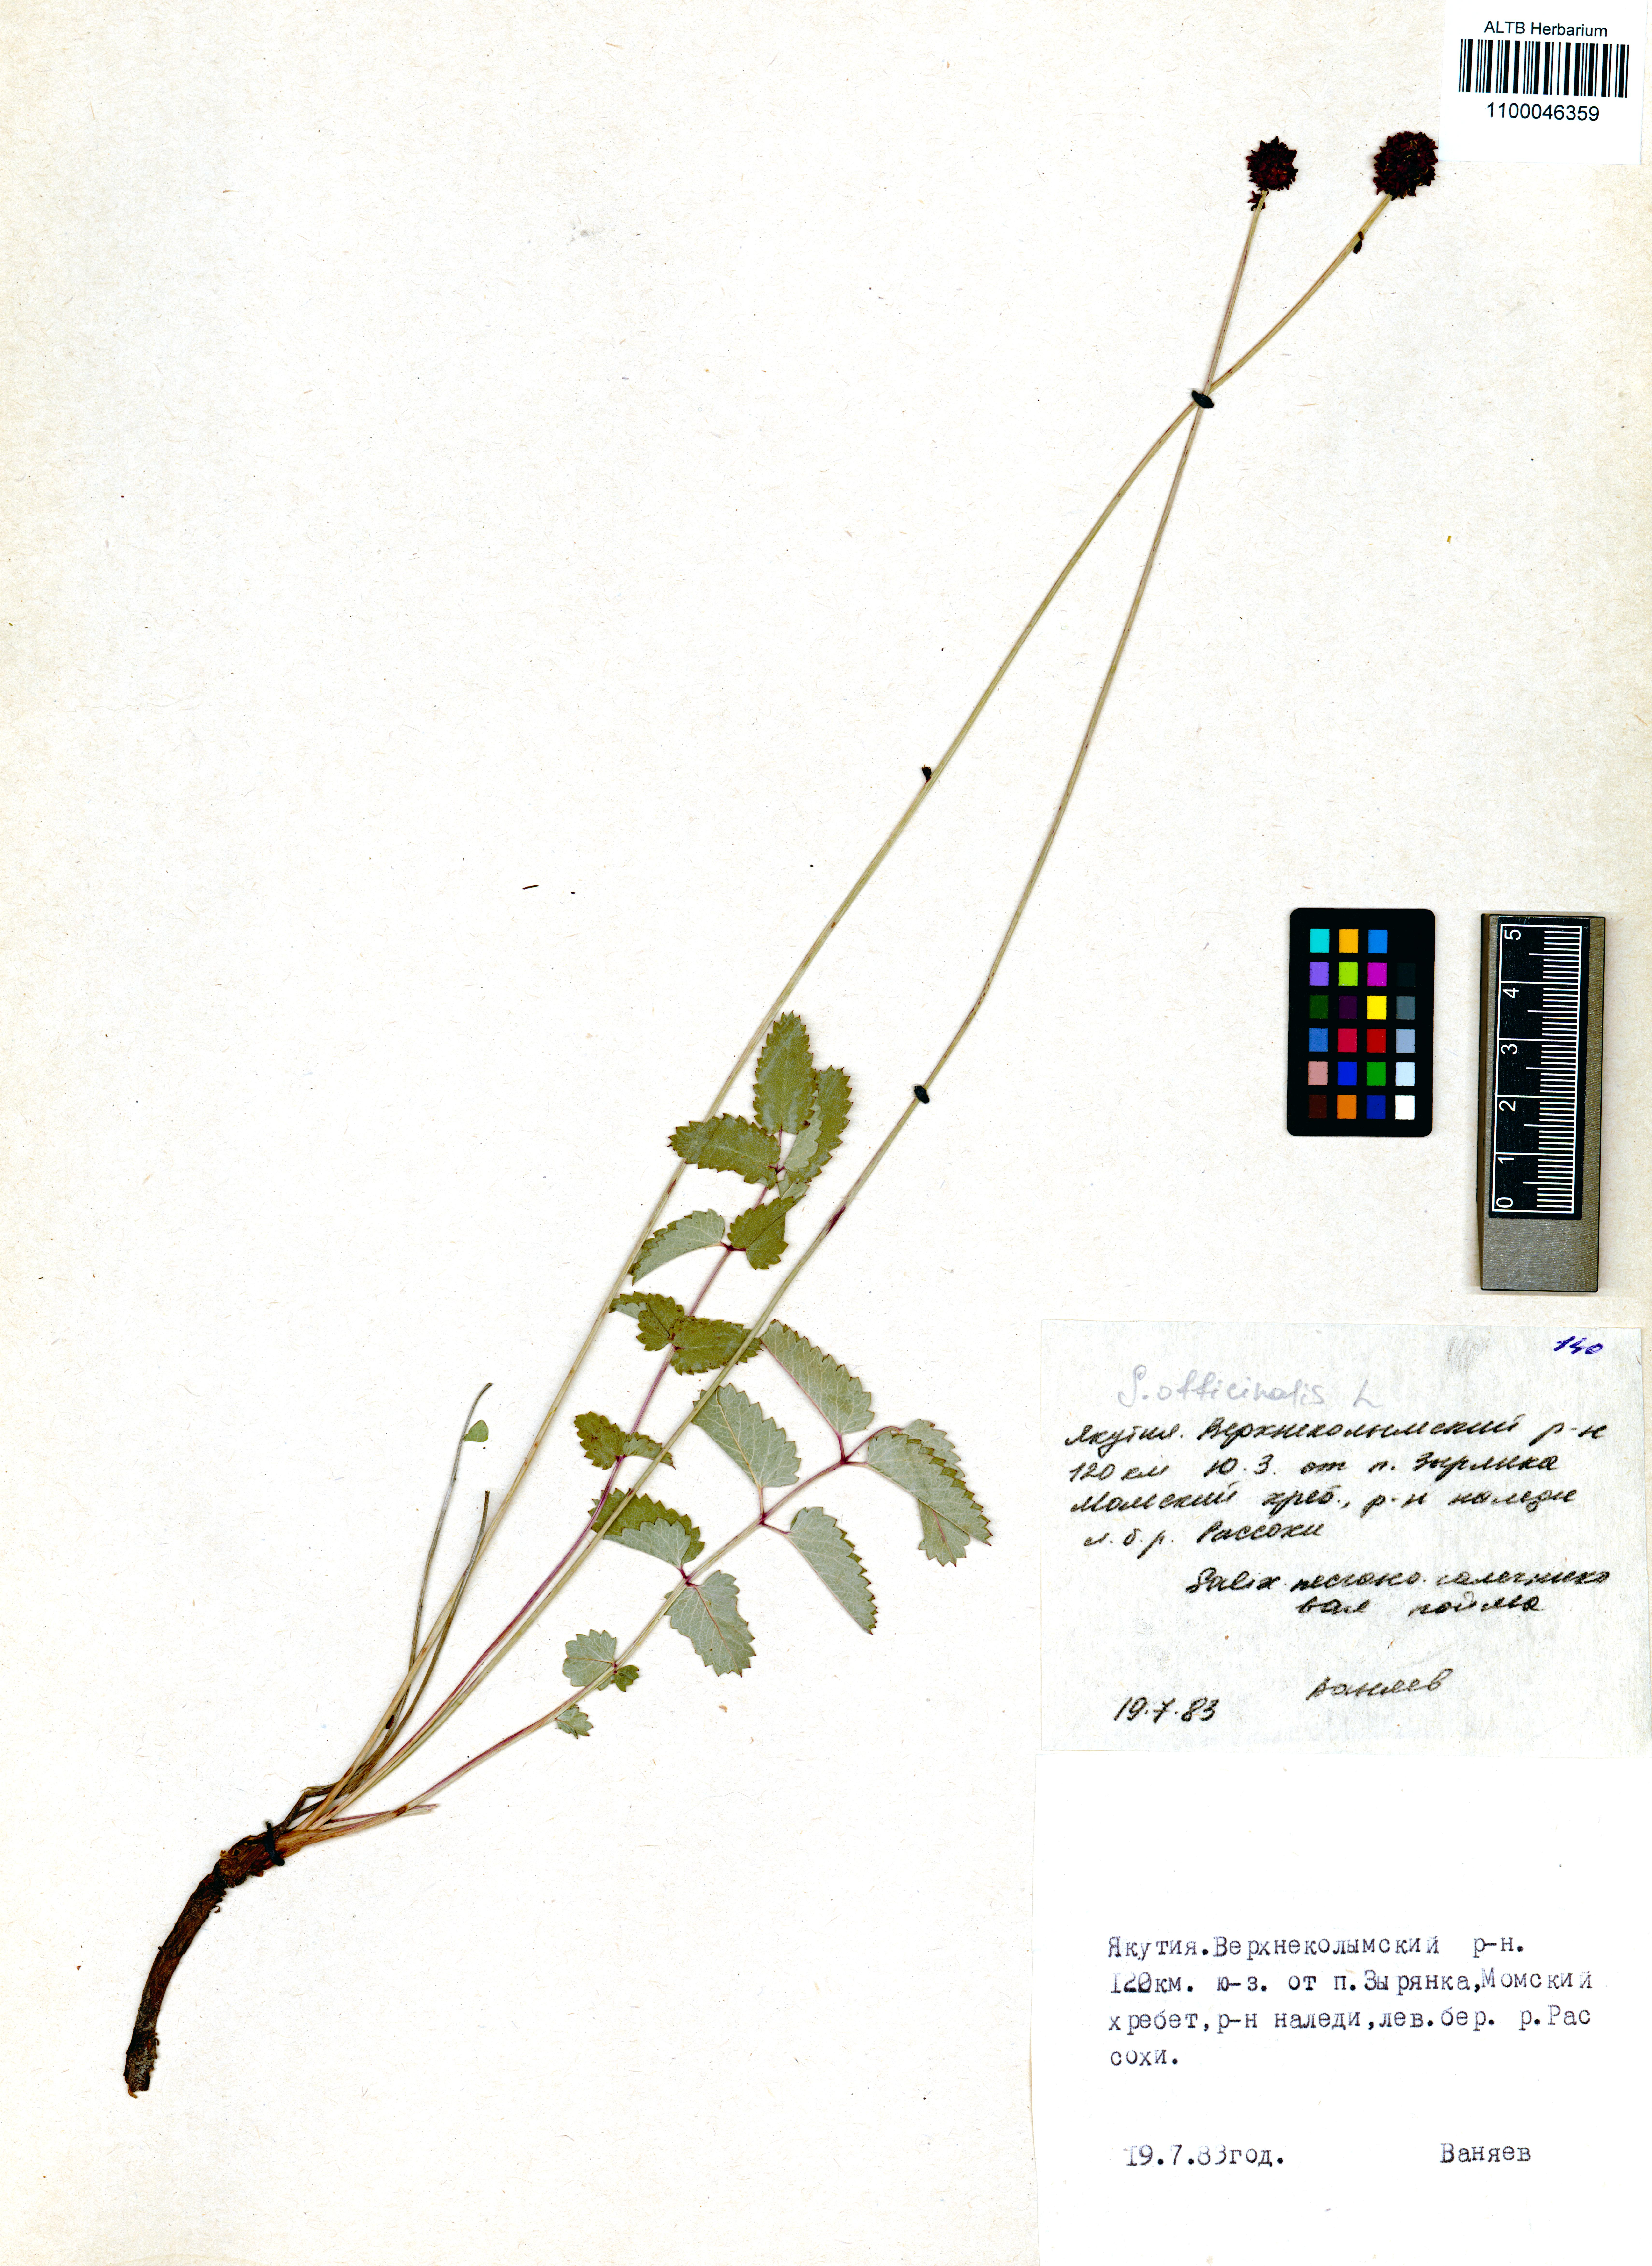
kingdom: Plantae
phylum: Tracheophyta
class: Magnoliopsida
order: Rosales
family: Rosaceae
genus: Sanguisorba
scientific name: Sanguisorba officinalis
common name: Great burnet
